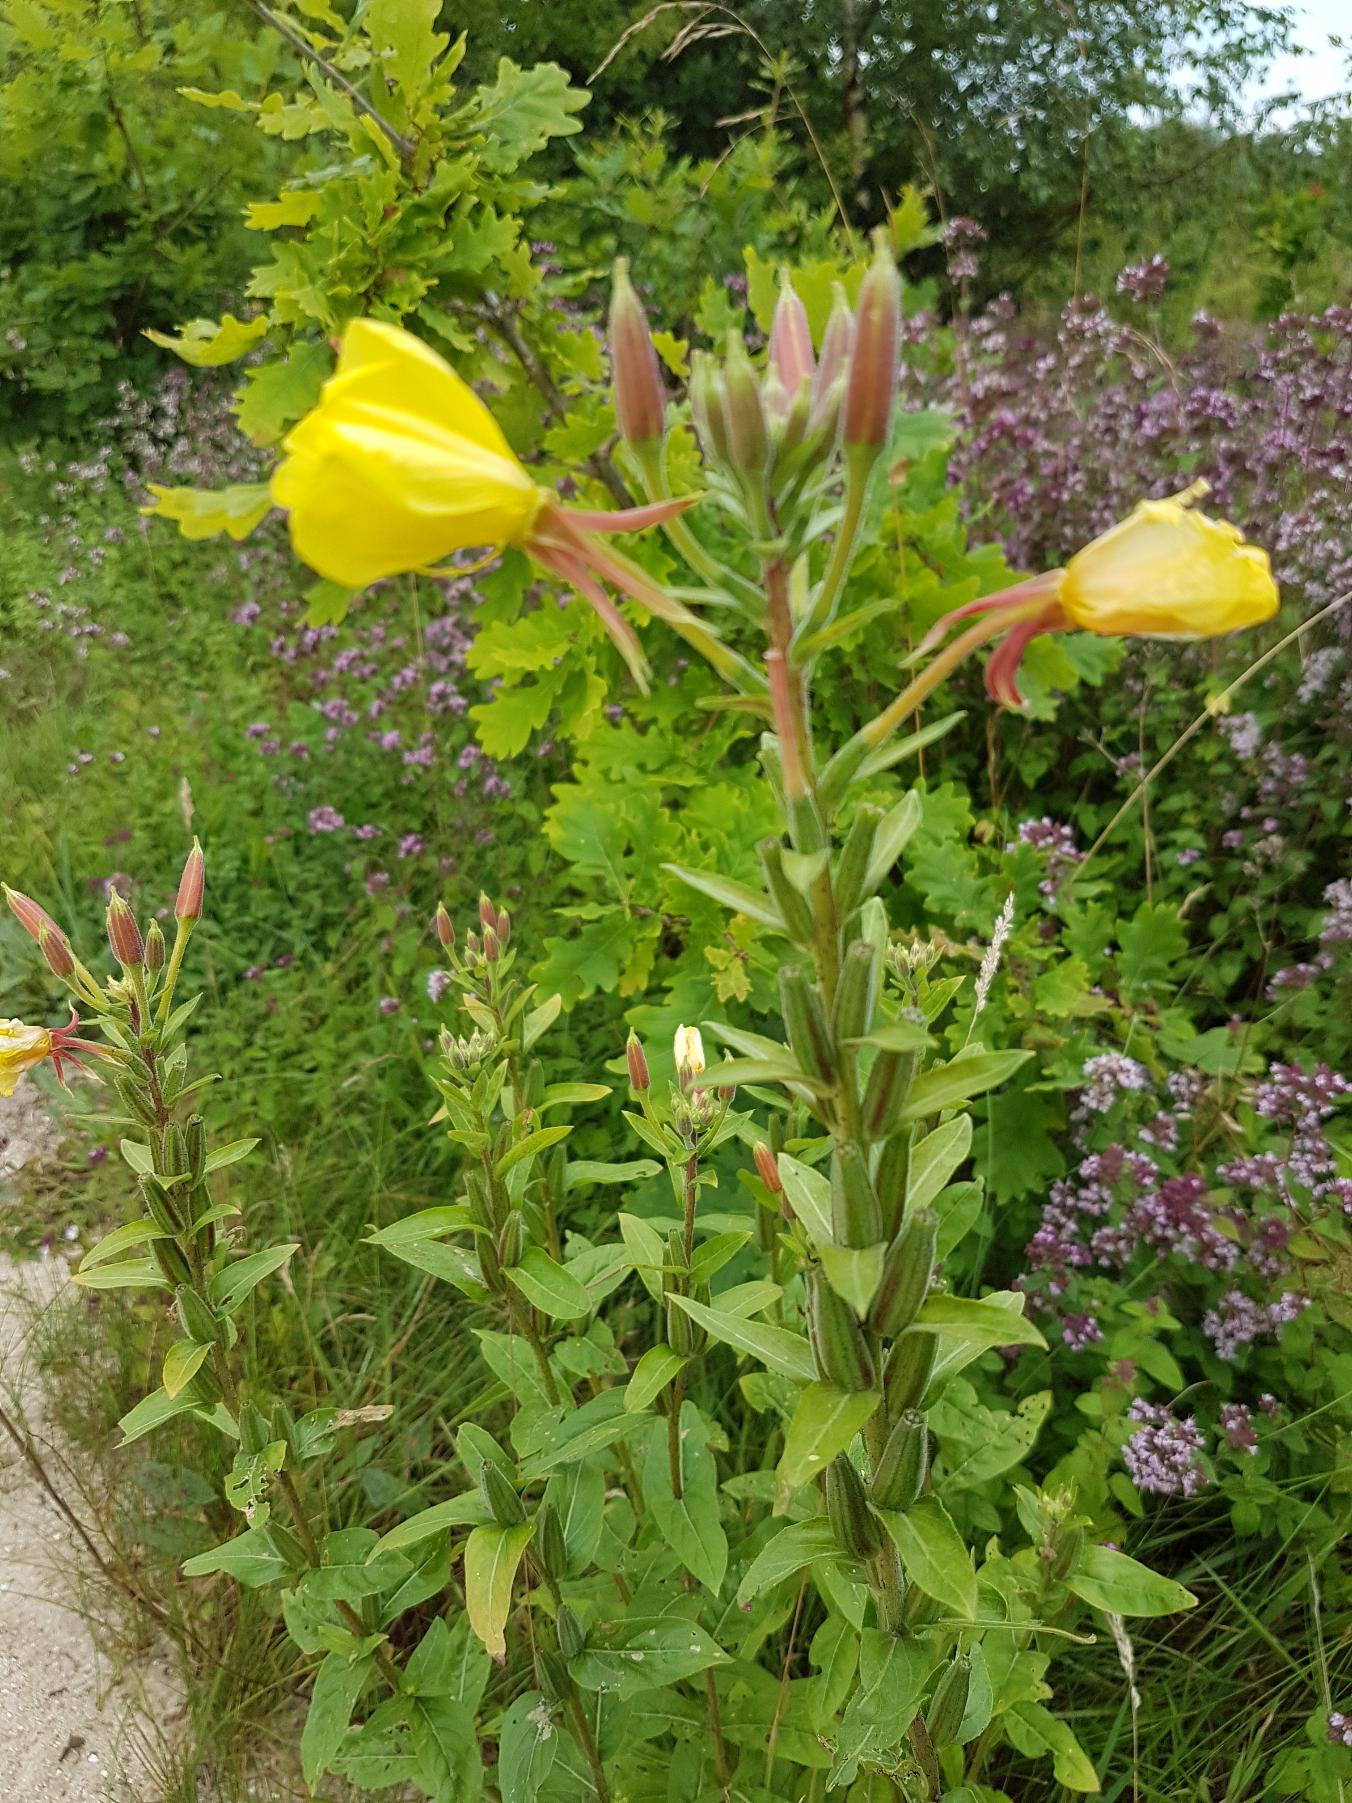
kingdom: Plantae
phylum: Tracheophyta
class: Magnoliopsida
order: Myrtales
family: Onagraceae
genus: Oenothera
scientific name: Oenothera glazioviana
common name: Kæmpe-natlys
